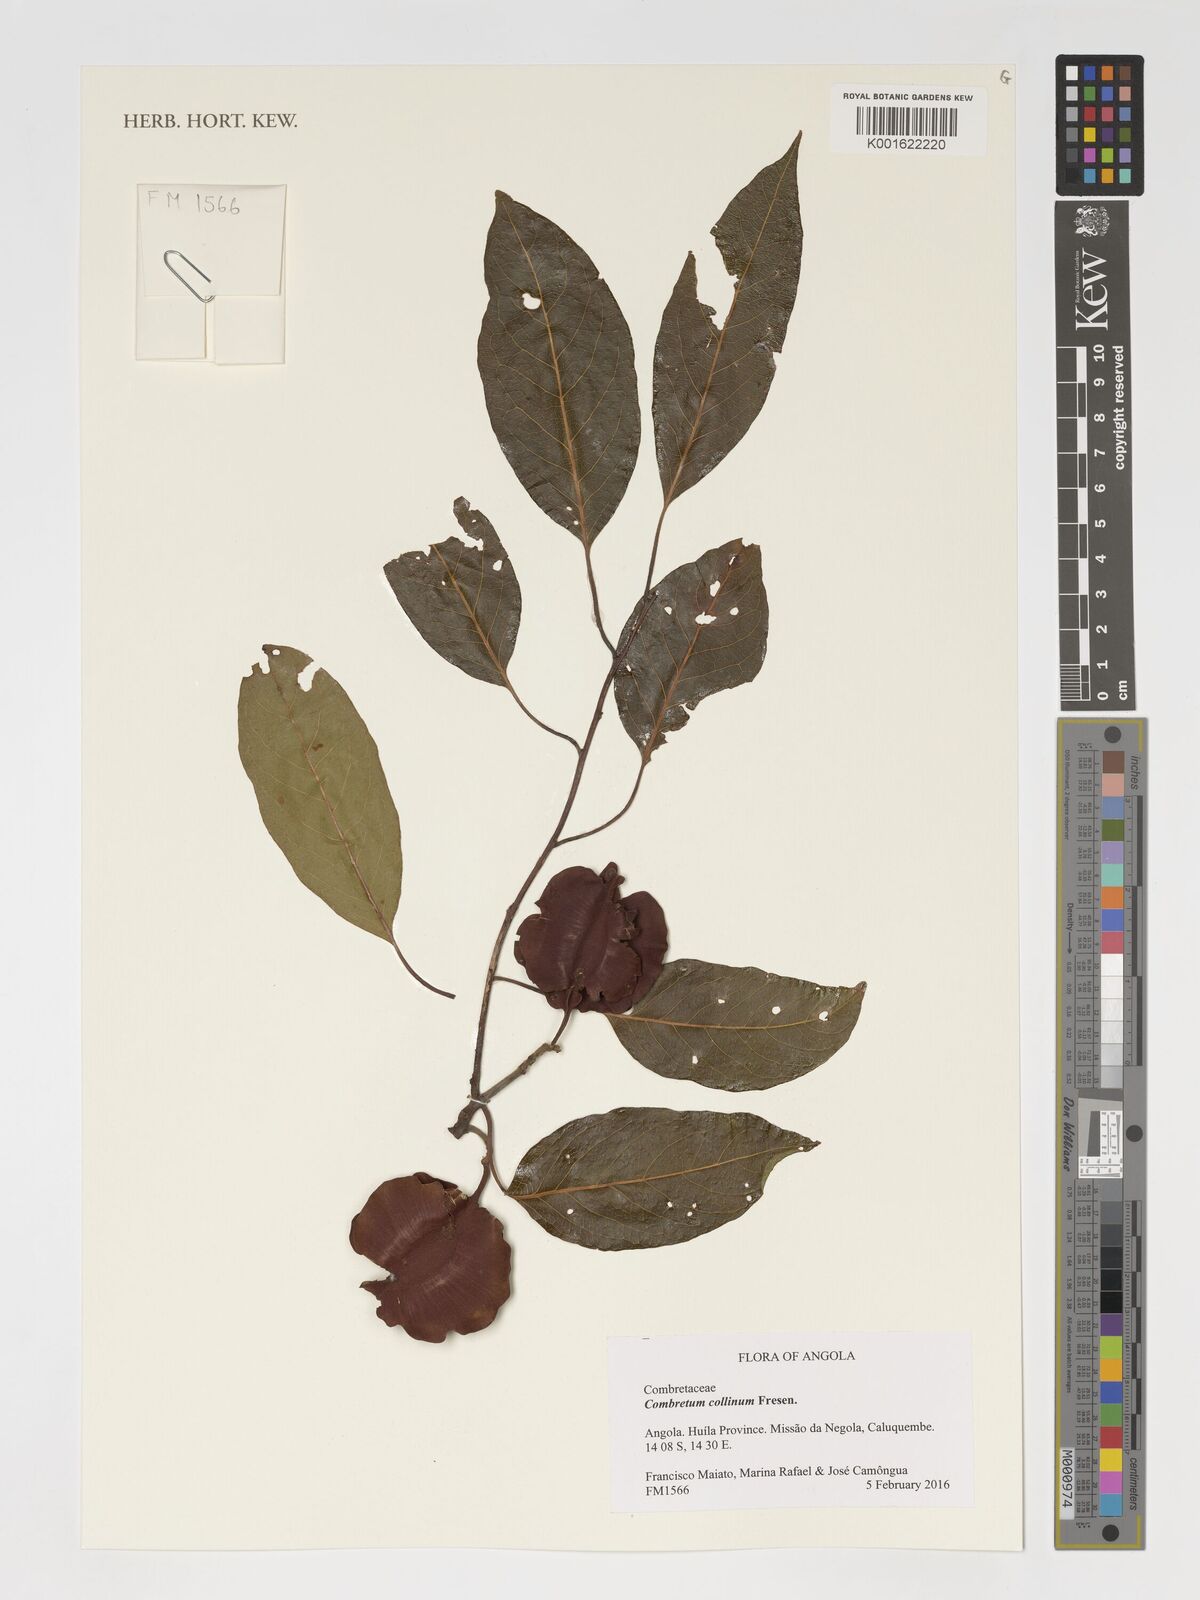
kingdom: Plantae
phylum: Tracheophyta
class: Magnoliopsida
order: Myrtales
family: Combretaceae
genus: Combretum
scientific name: Combretum collinum
